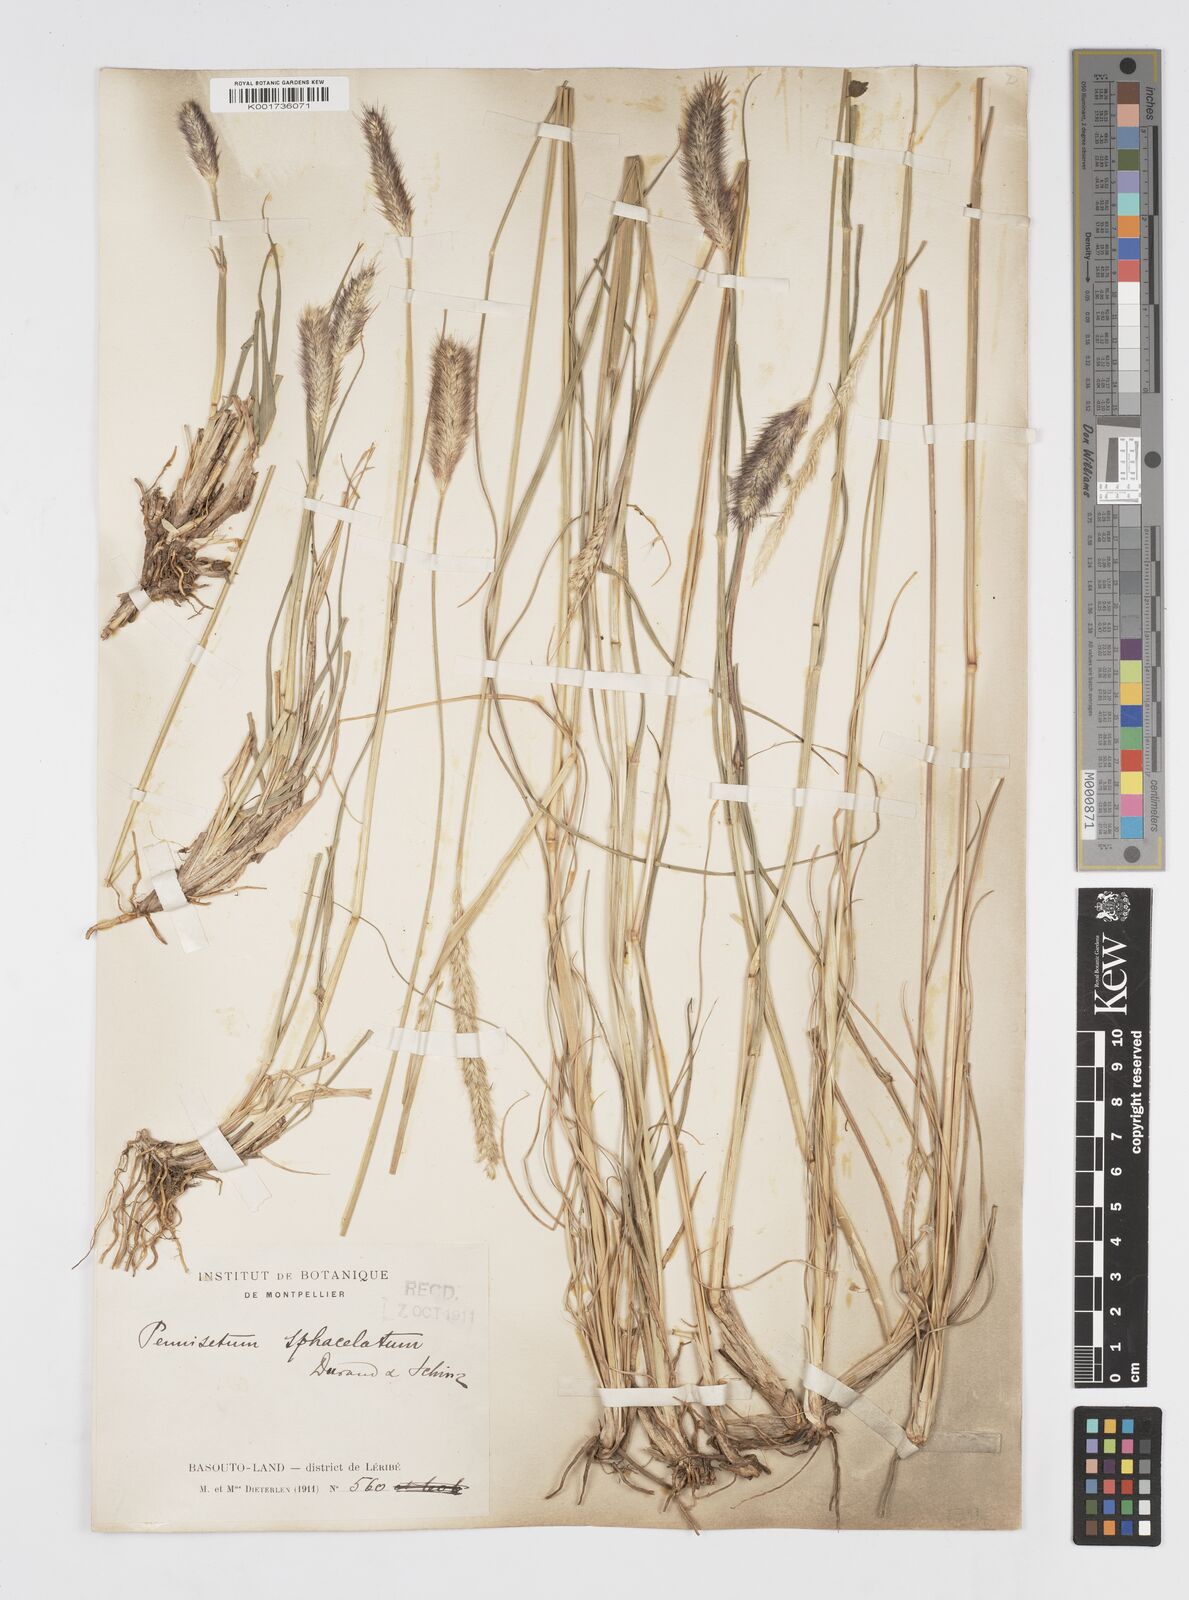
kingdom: Plantae
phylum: Tracheophyta
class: Liliopsida
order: Poales
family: Poaceae
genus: Cenchrus
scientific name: Cenchrus sphacelatus
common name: Bulgras
